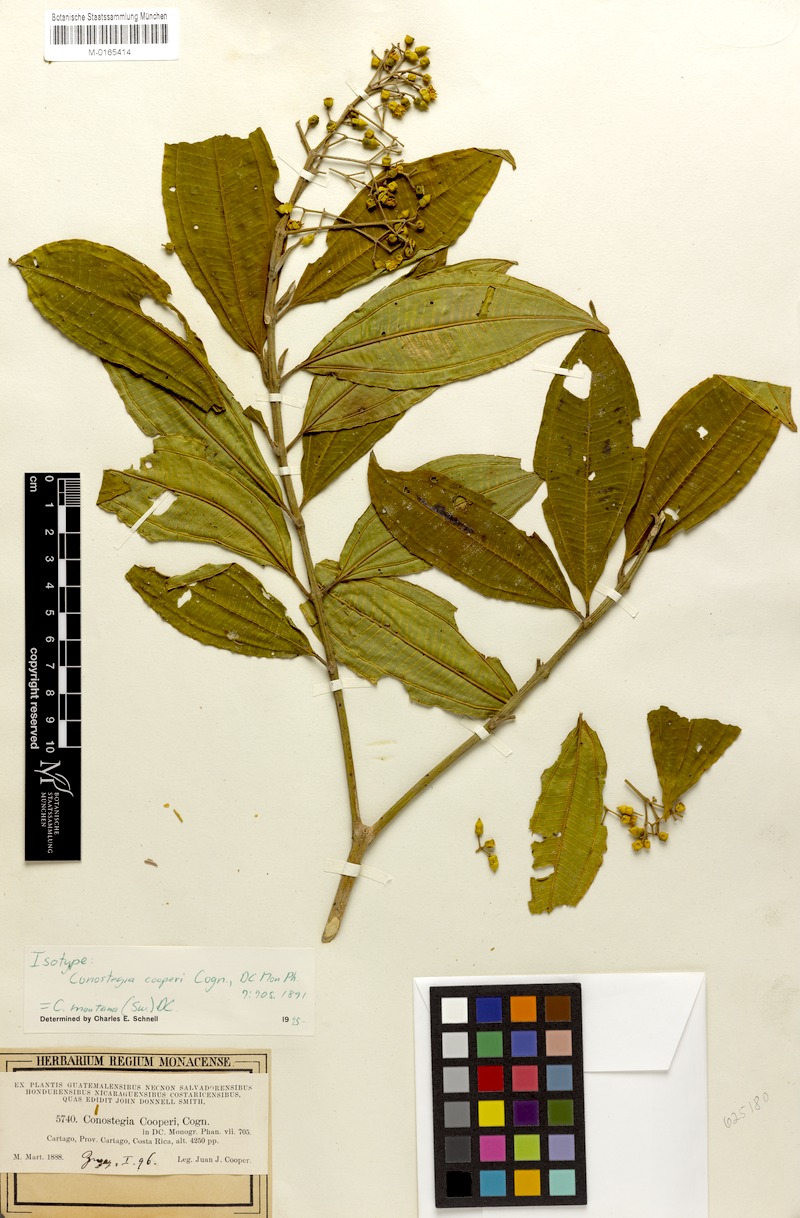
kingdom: Plantae
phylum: Tracheophyta
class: Magnoliopsida
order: Myrtales
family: Melastomataceae
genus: Miconia
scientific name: Miconia cooperi
